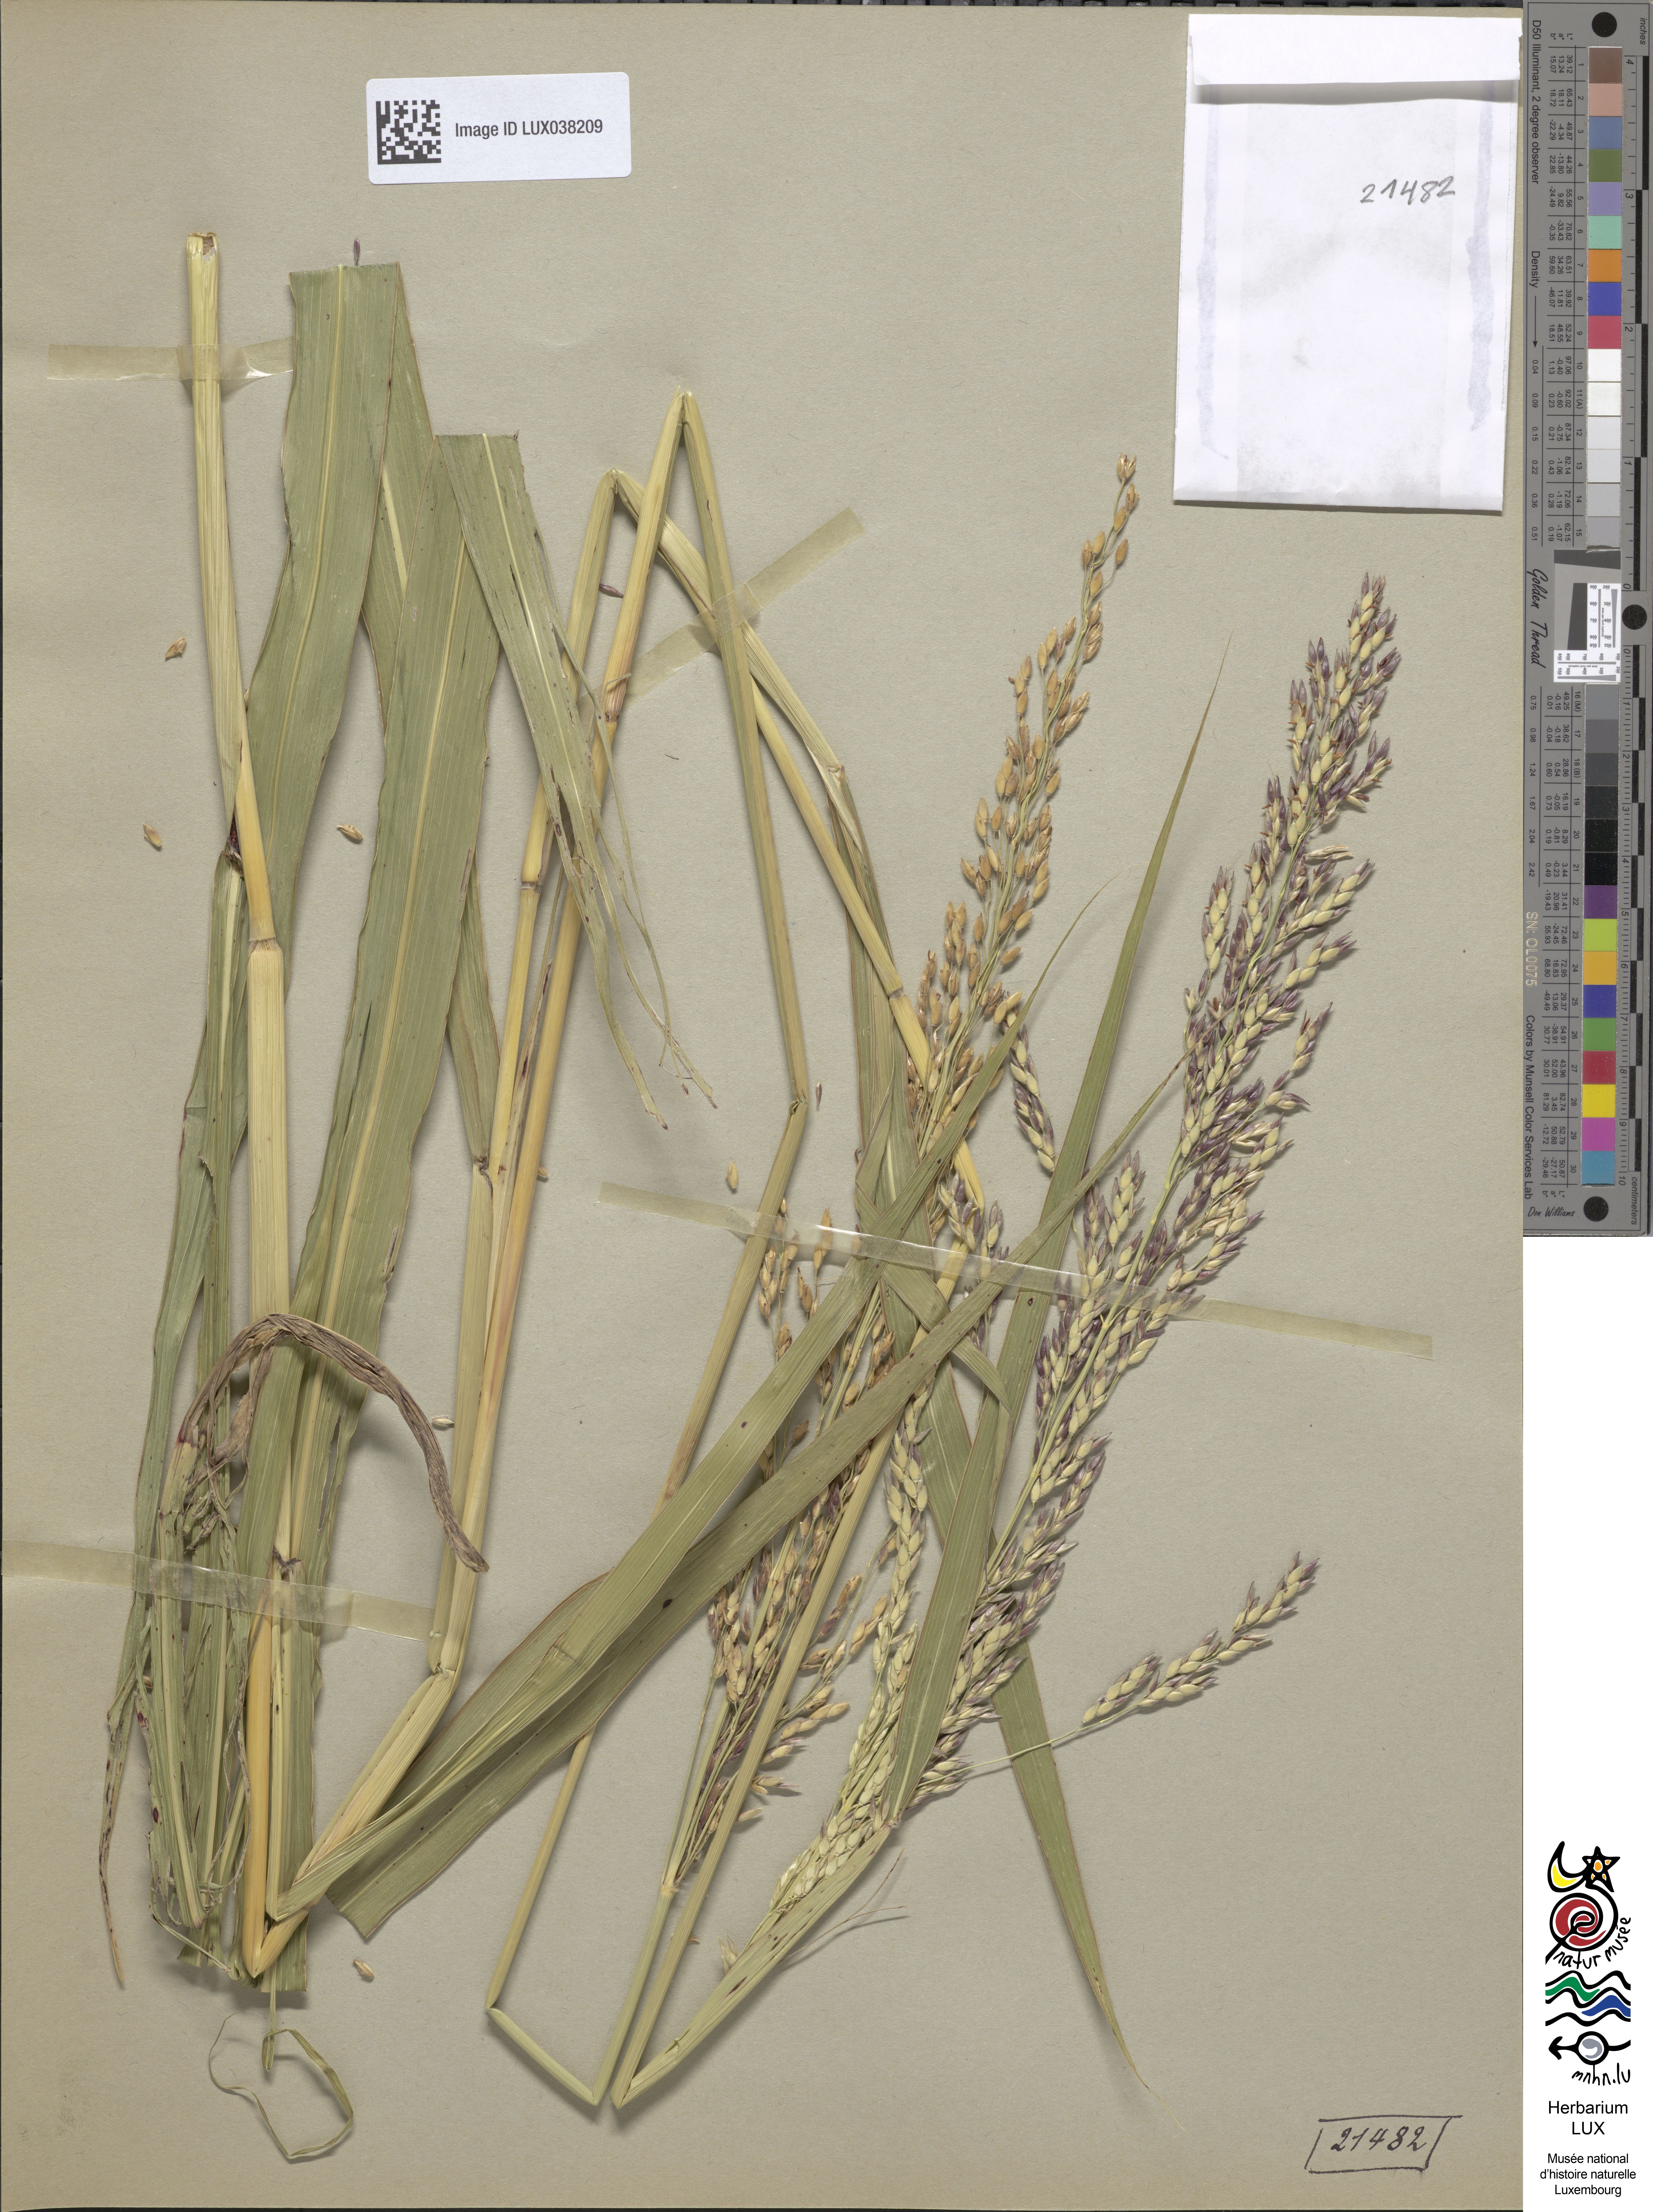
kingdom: Plantae
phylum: Tracheophyta
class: Liliopsida
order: Poales
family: Poaceae
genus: Sorghum
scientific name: Sorghum halepense
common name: Johnson-grass
